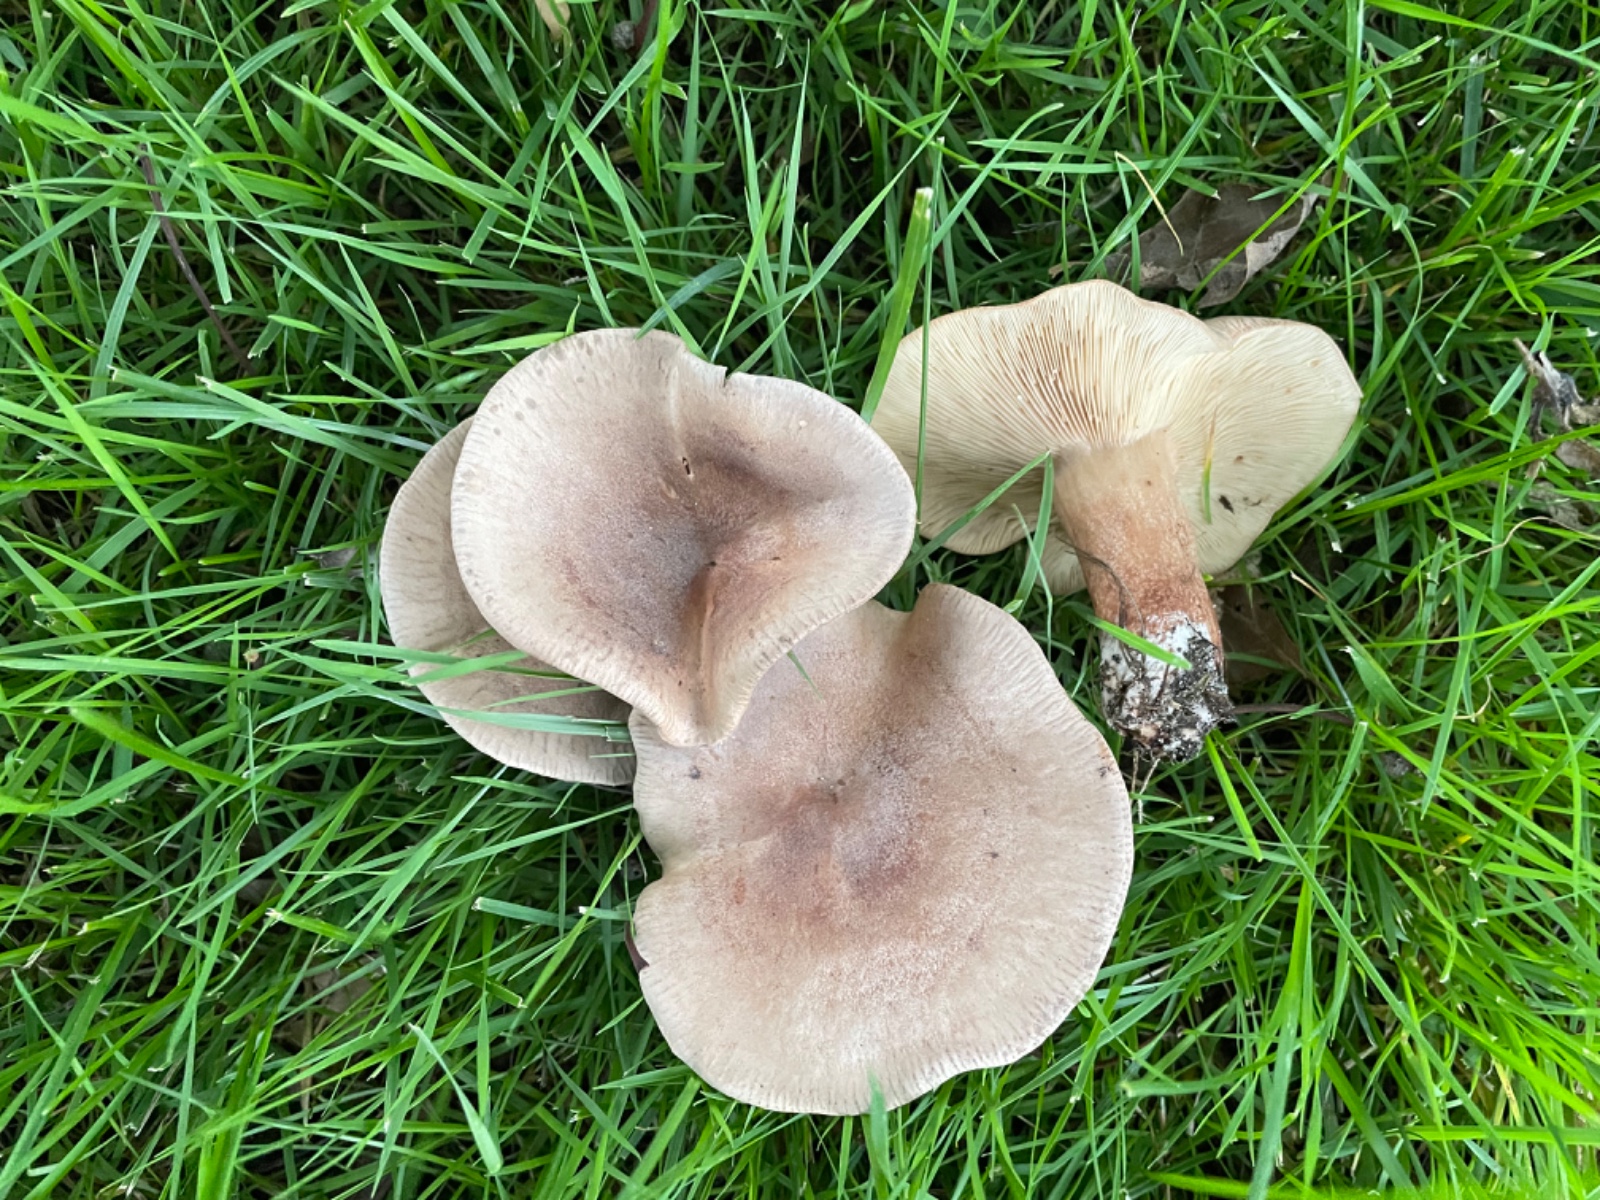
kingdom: Fungi
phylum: Basidiomycota
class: Agaricomycetes
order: Russulales
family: Russulaceae
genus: Lactarius
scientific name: Lactarius quietus
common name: ege-mælkehat
